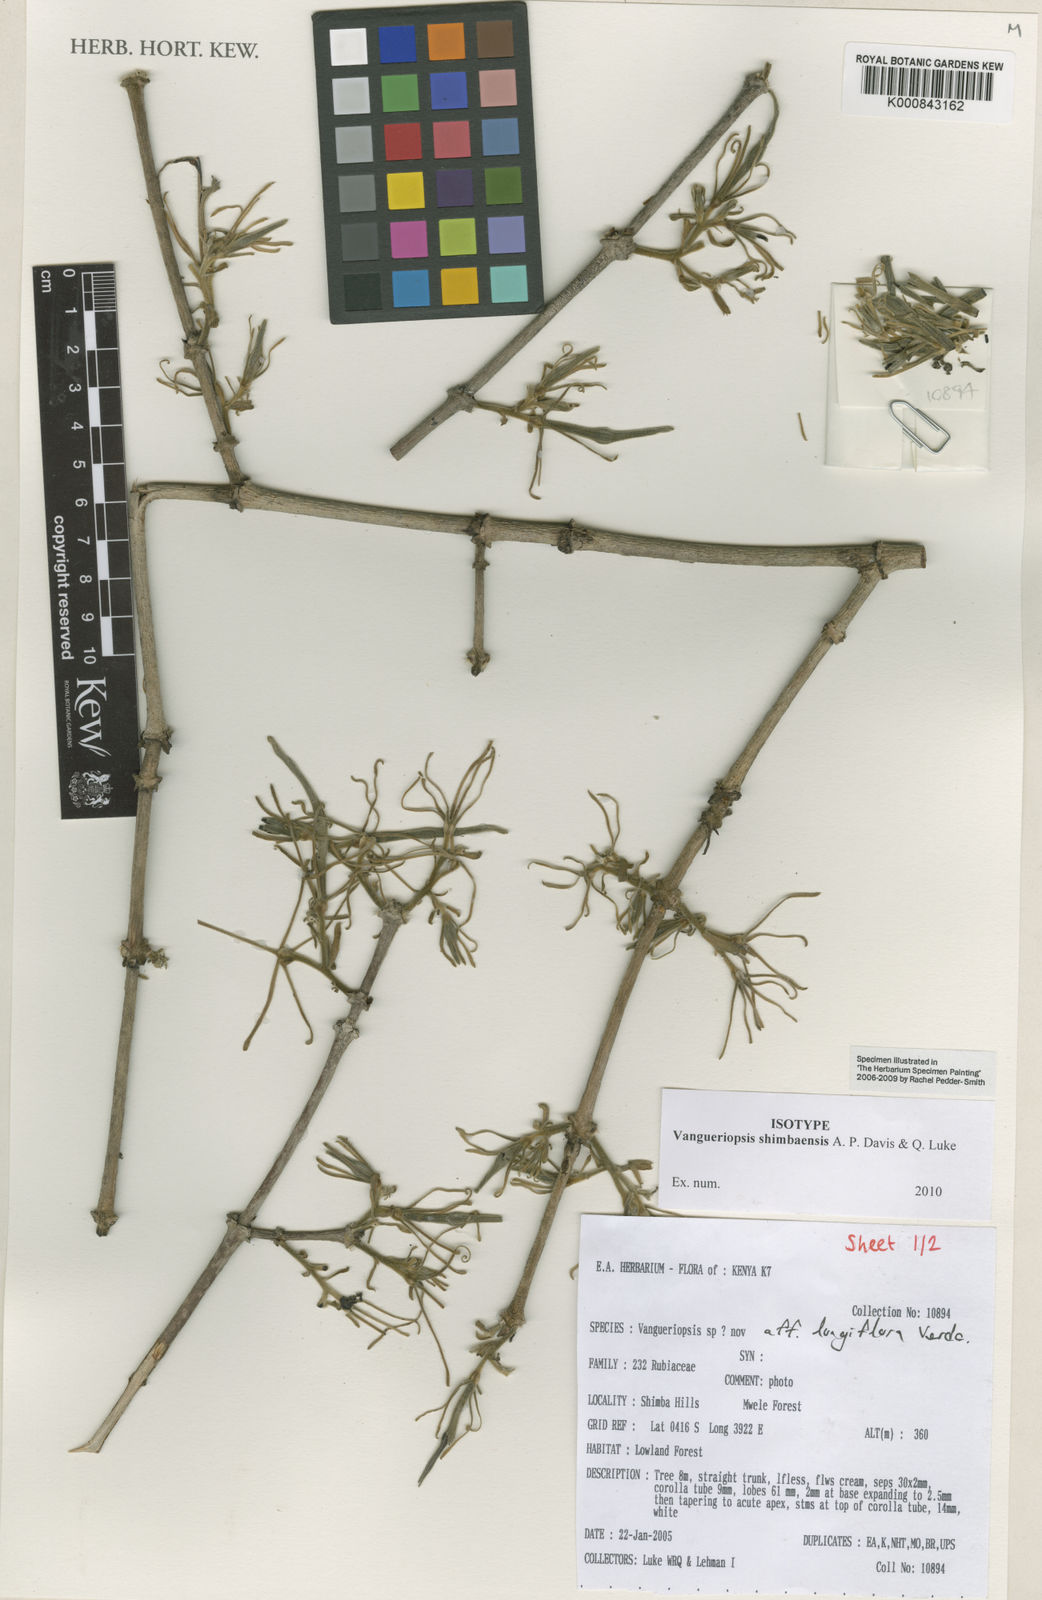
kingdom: Plantae
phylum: Tracheophyta
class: Magnoliopsida
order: Gentianales
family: Rubiaceae
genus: Vangueriopsis
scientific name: Vangueriopsis shimbaensis
